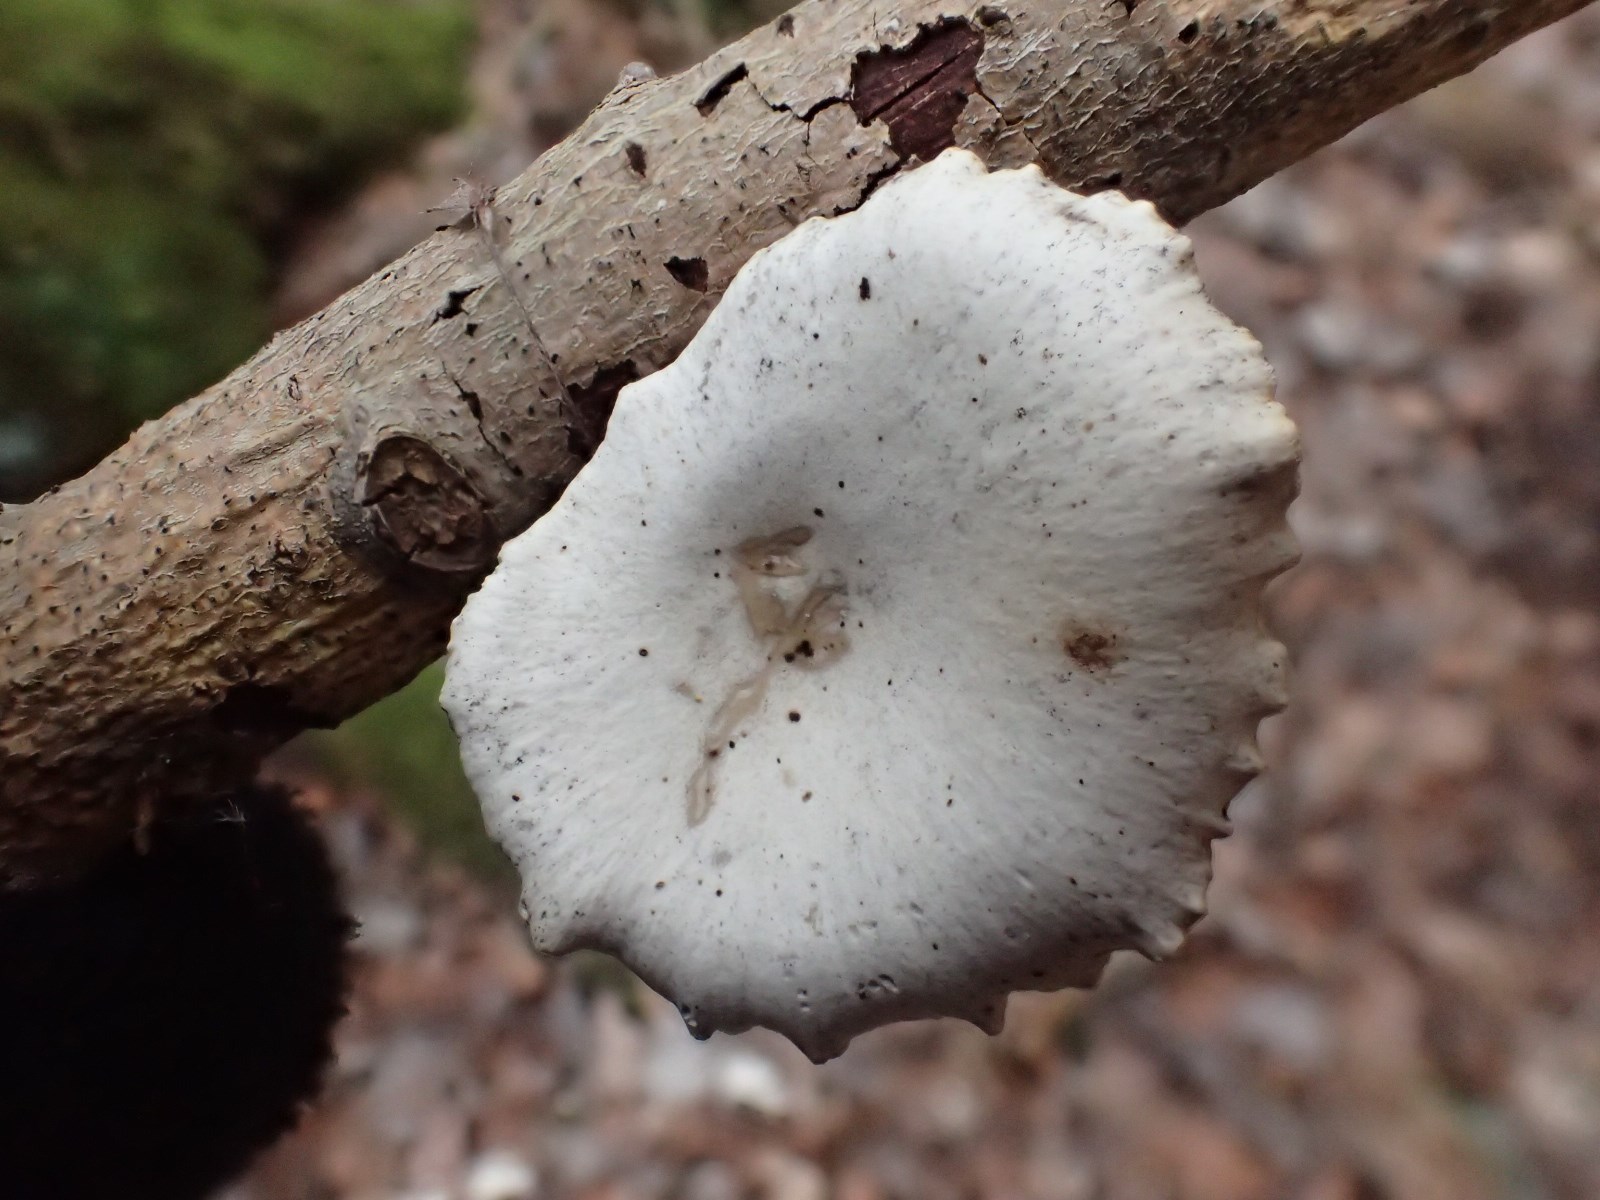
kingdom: Fungi
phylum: Basidiomycota
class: Agaricomycetes
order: Polyporales
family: Polyporaceae
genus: Cerioporus
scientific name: Cerioporus varius
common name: foranderlig stilkporesvamp
